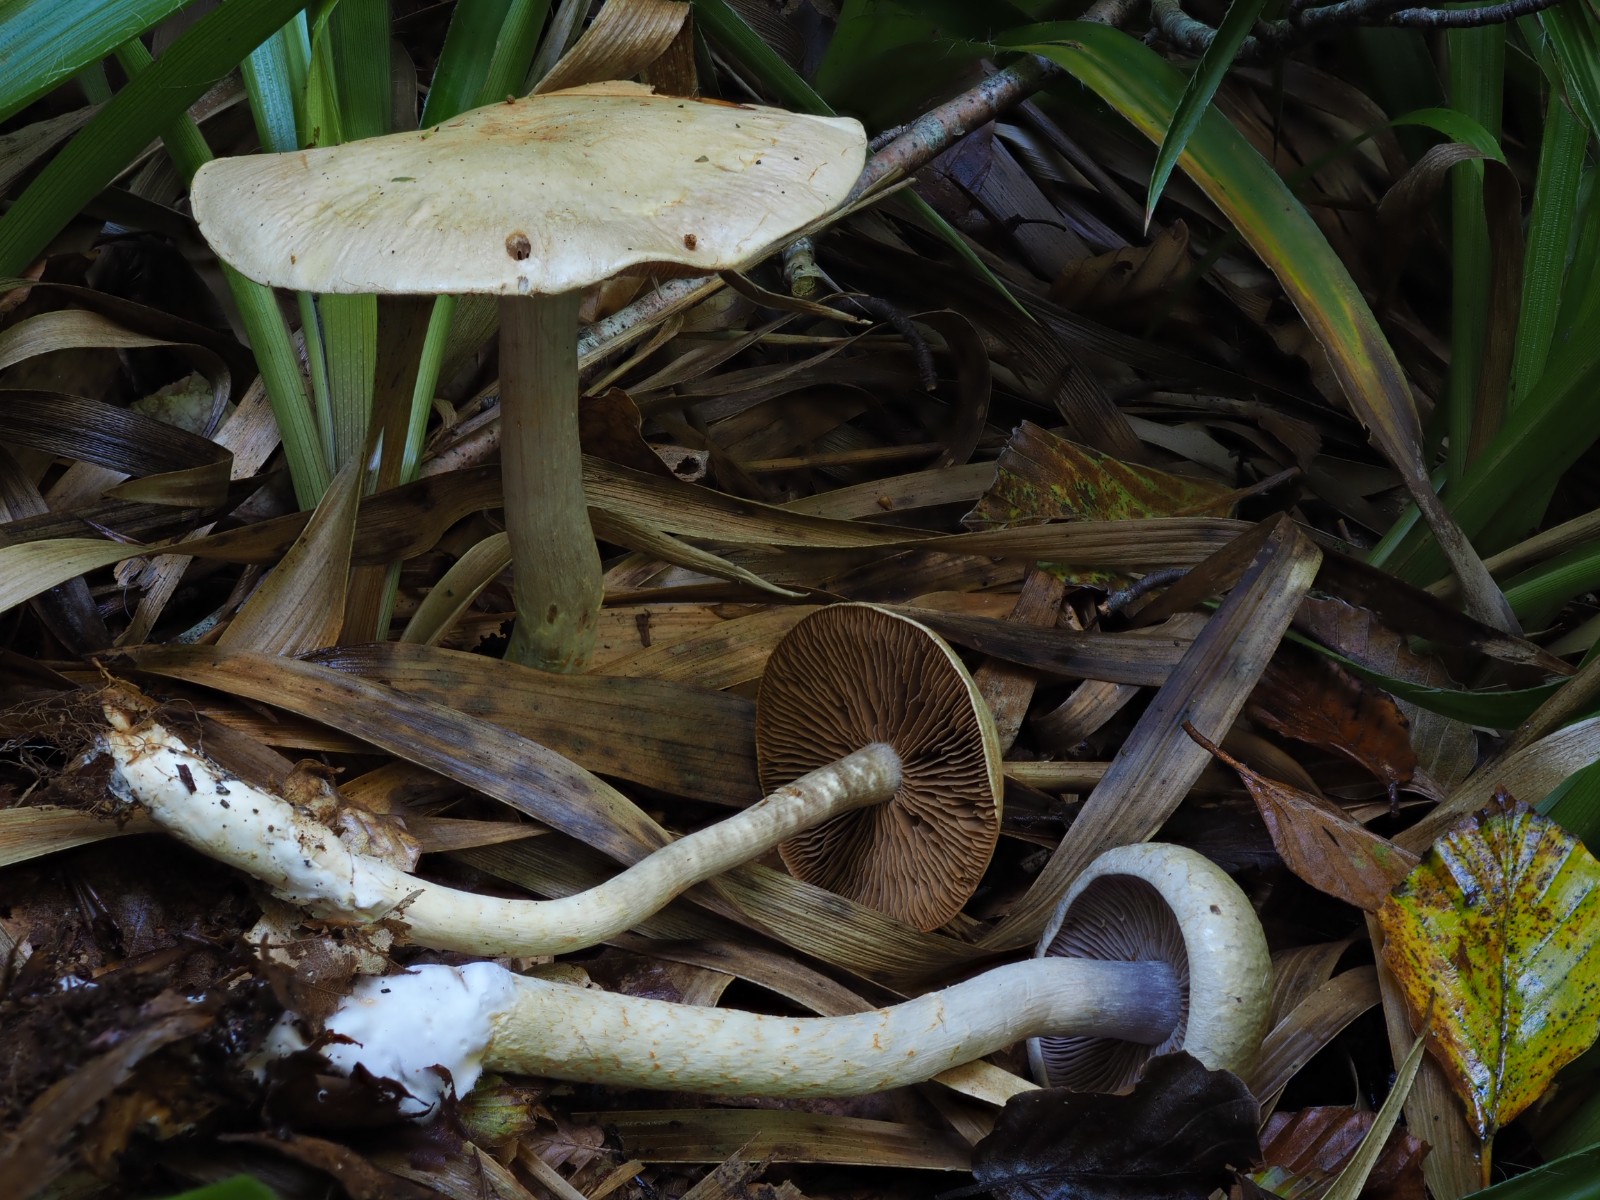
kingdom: Fungi
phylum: Basidiomycota
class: Agaricomycetes
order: Agaricales
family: Cortinariaceae
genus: Cortinarius
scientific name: Cortinarius pelerinii
